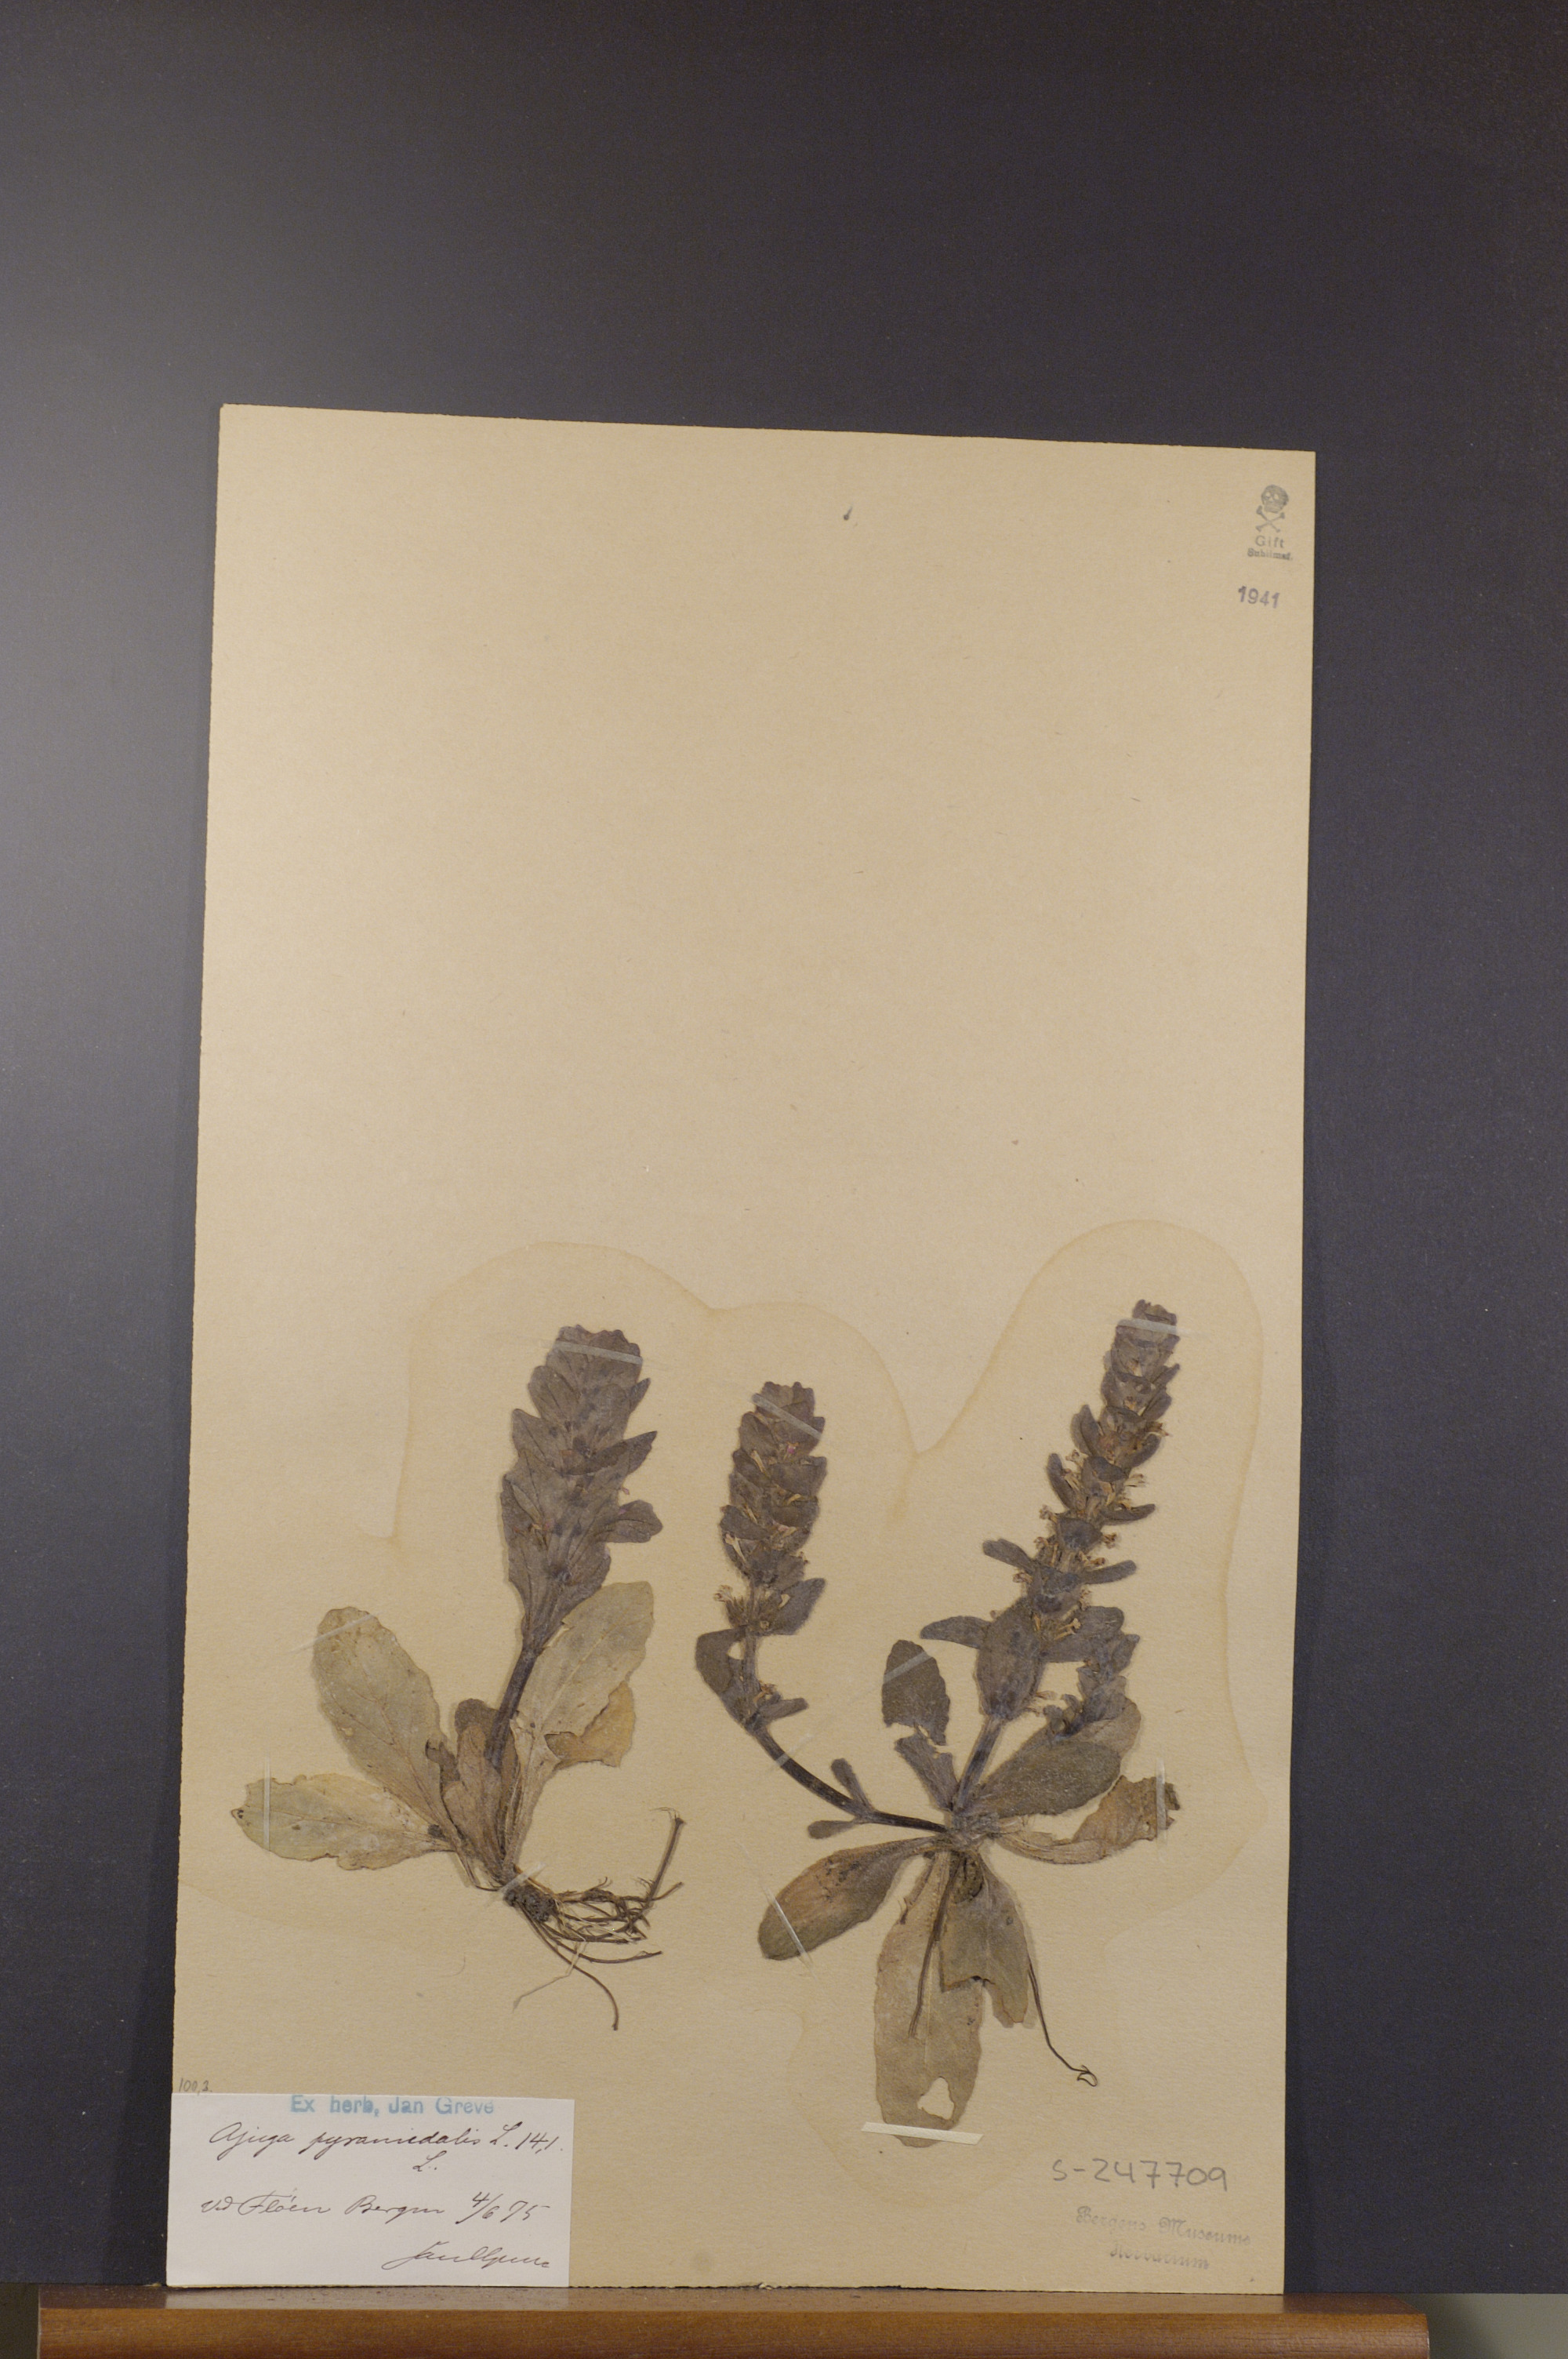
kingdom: Plantae
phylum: Tracheophyta
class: Magnoliopsida
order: Lamiales
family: Lamiaceae
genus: Ajuga
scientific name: Ajuga pyramidalis
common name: Pyramid bugle
